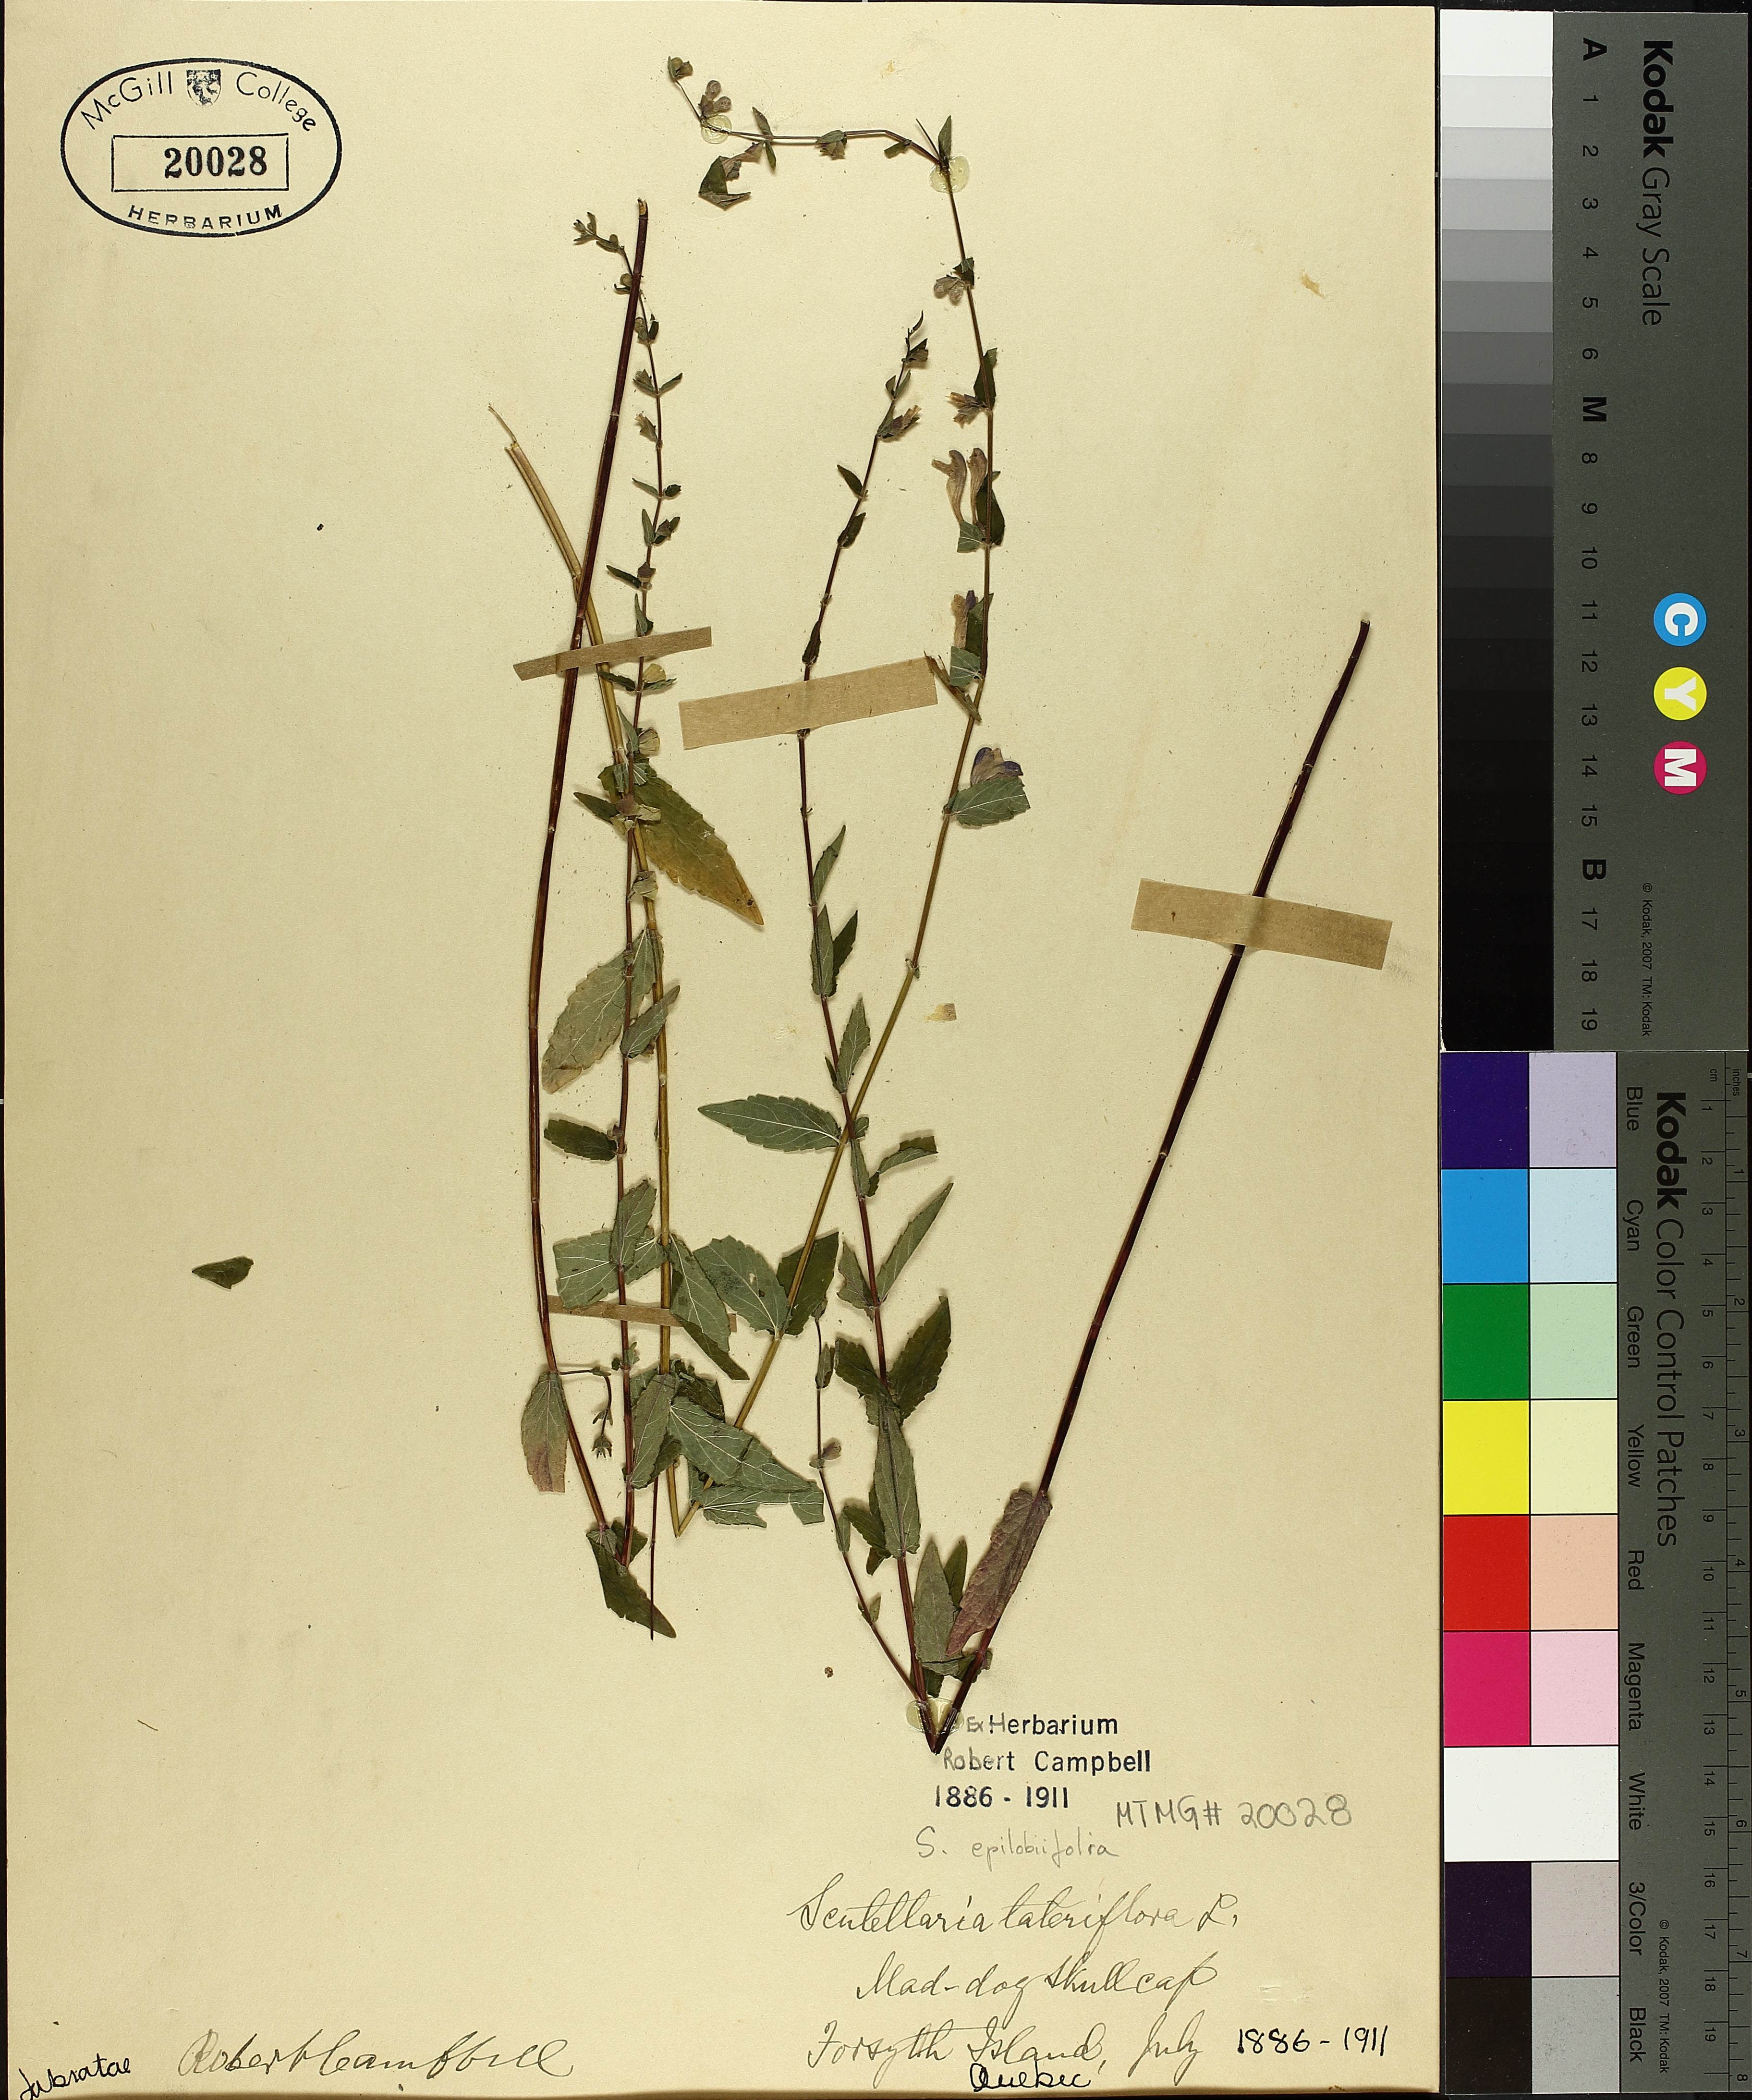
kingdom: Plantae
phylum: Tracheophyta
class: Magnoliopsida
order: Lamiales
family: Lamiaceae
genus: Scutellaria
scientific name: Scutellaria galericulata
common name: Skullcap
